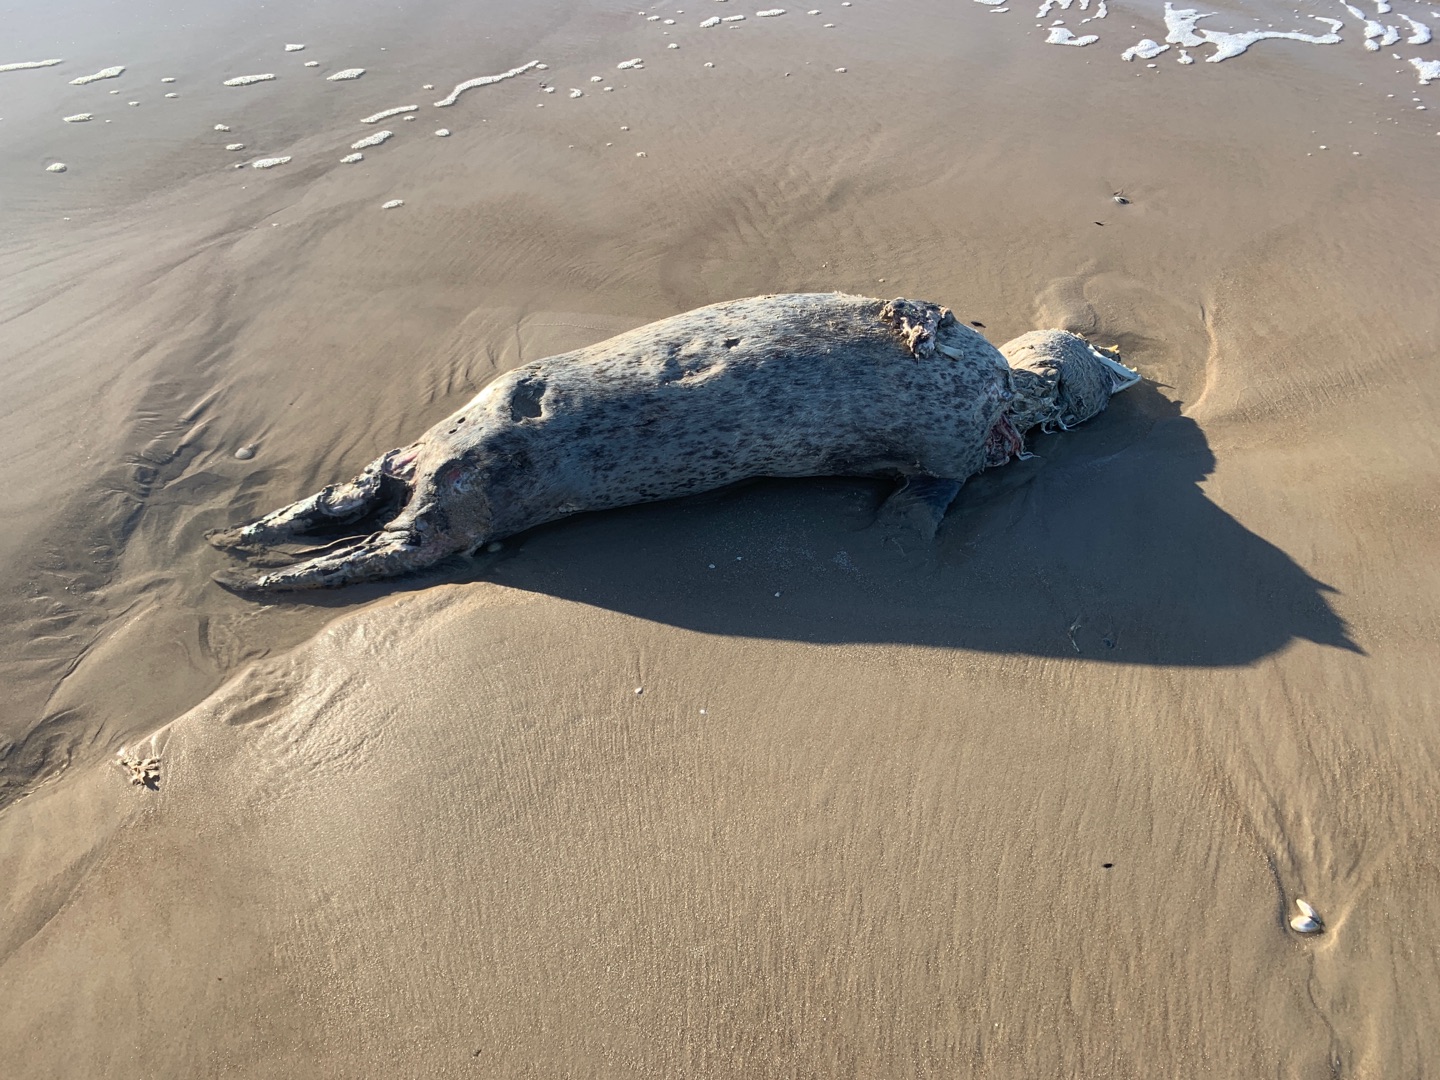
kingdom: Animalia
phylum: Chordata
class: Mammalia
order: Carnivora
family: Phocidae
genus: Phoca
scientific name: Phoca vitulina
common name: Spættet sæl
